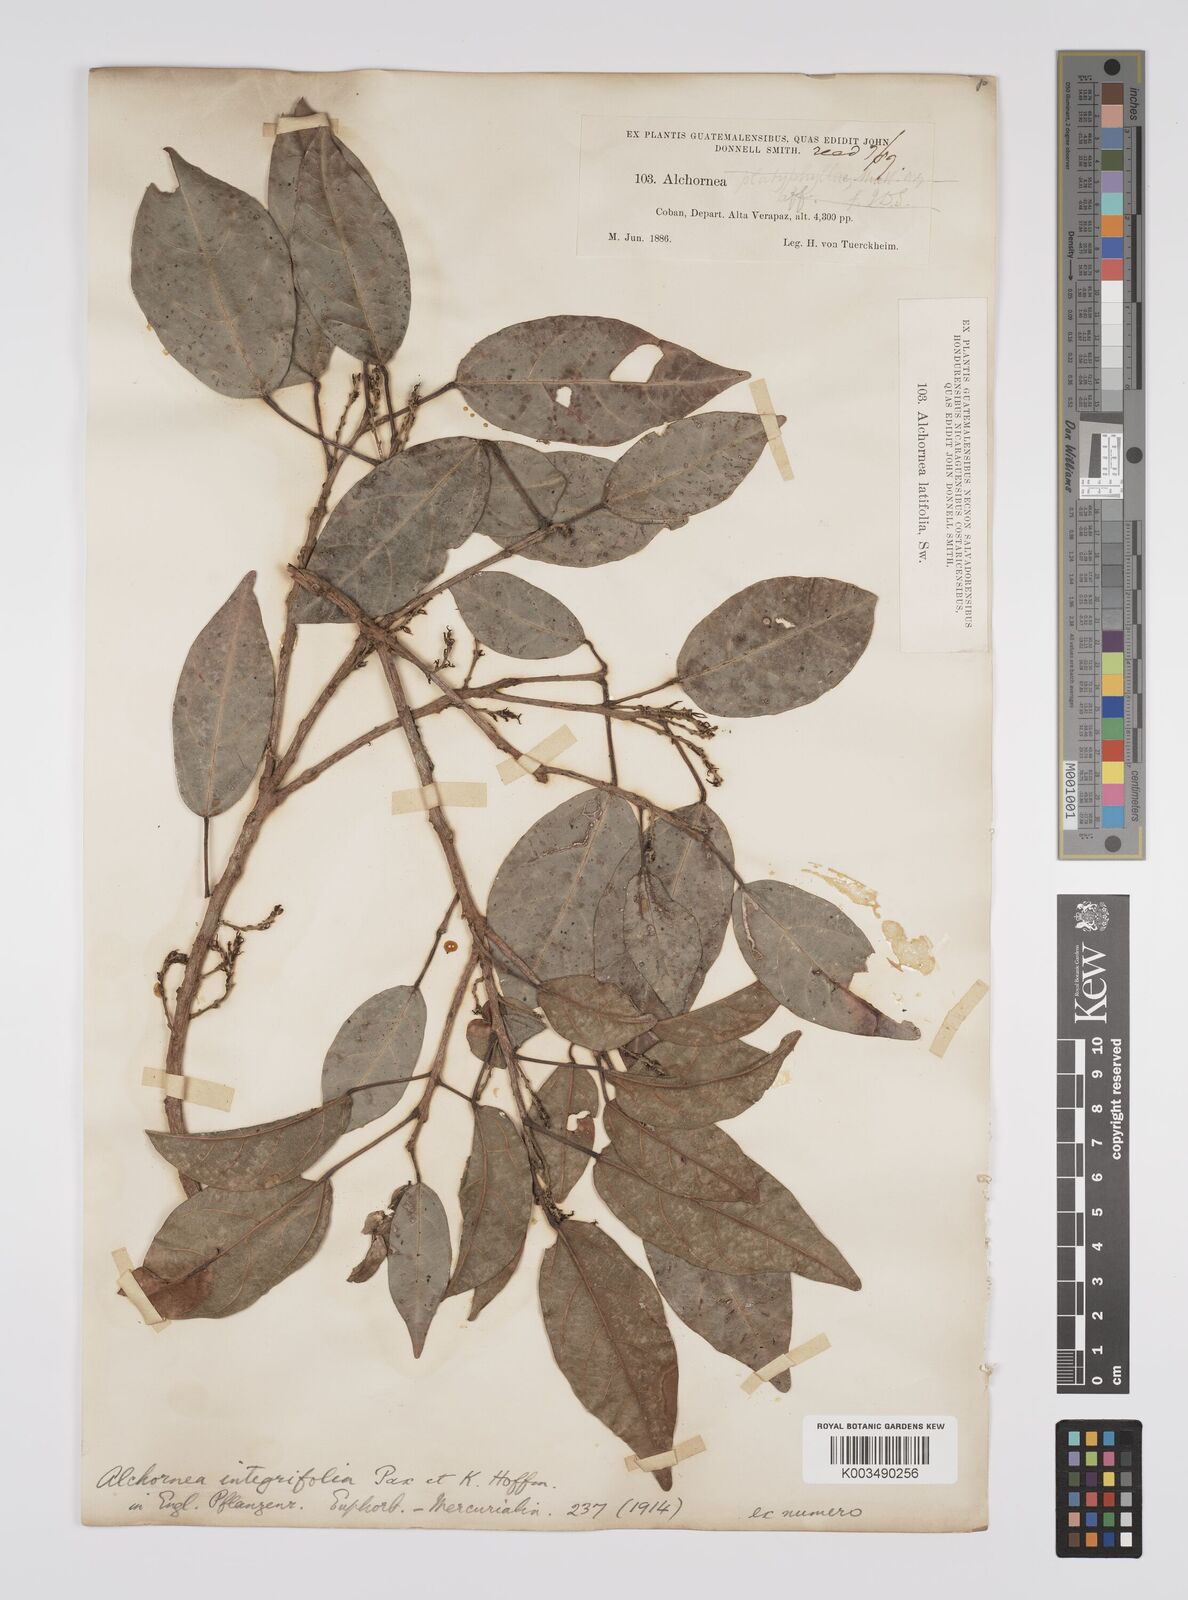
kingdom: Plantae
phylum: Tracheophyta
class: Magnoliopsida
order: Malpighiales
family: Euphorbiaceae
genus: Alchornea
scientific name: Alchornea integrifolia
